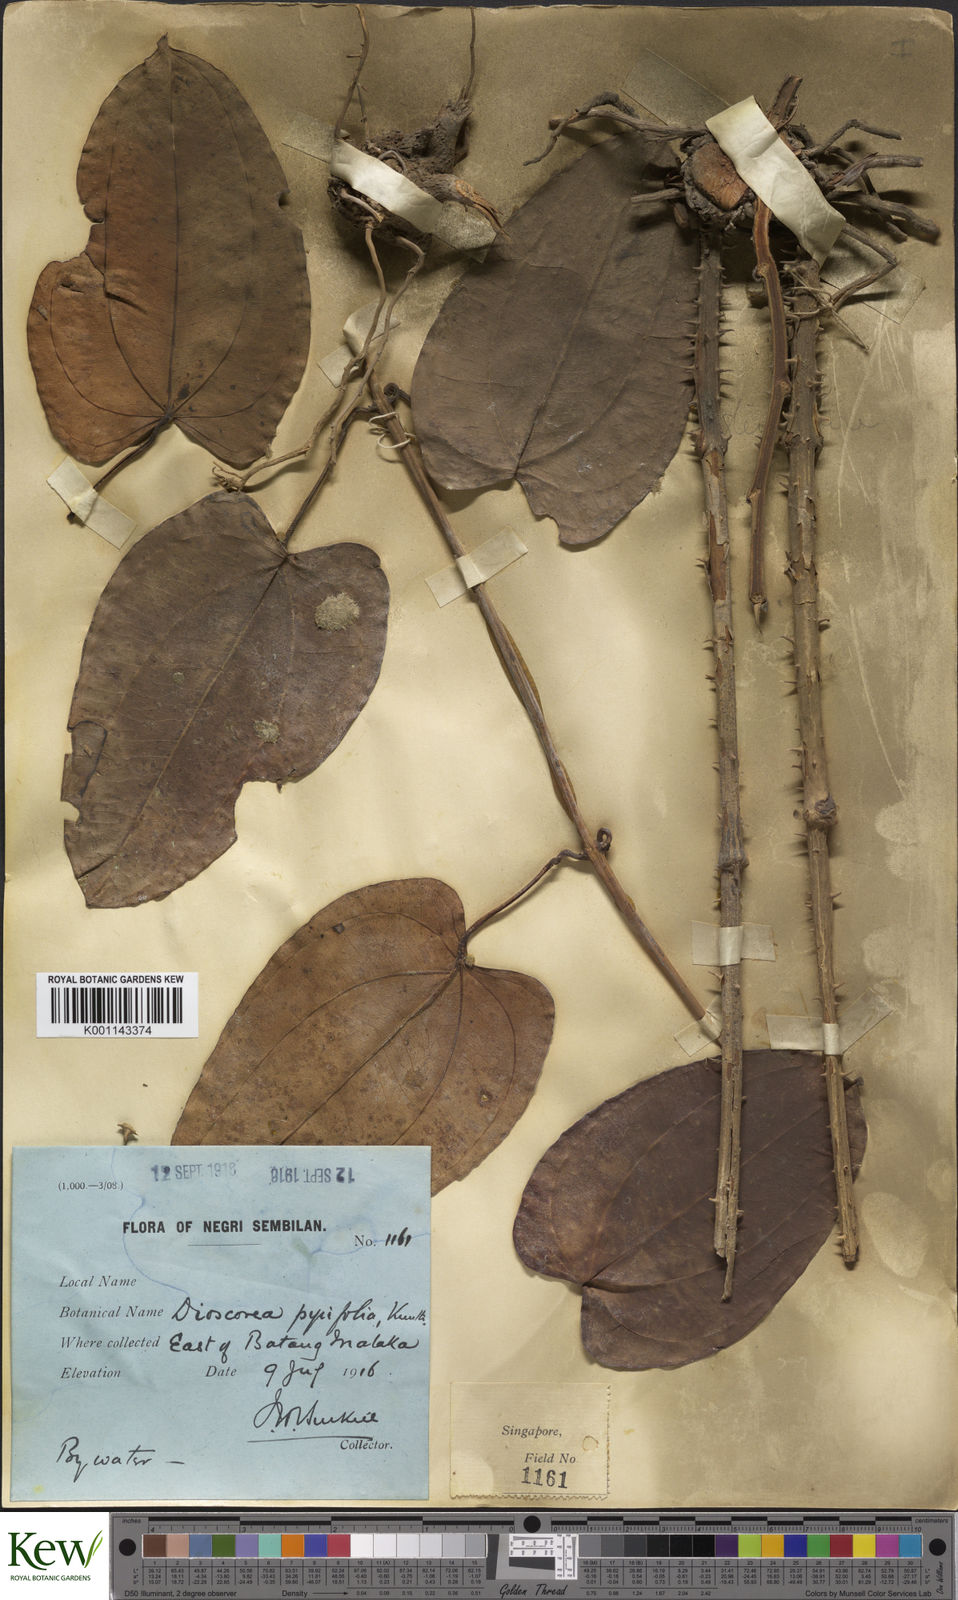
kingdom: Plantae
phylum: Tracheophyta
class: Liliopsida
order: Dioscoreales
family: Dioscoreaceae
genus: Dioscorea
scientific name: Dioscorea pyrifolia
